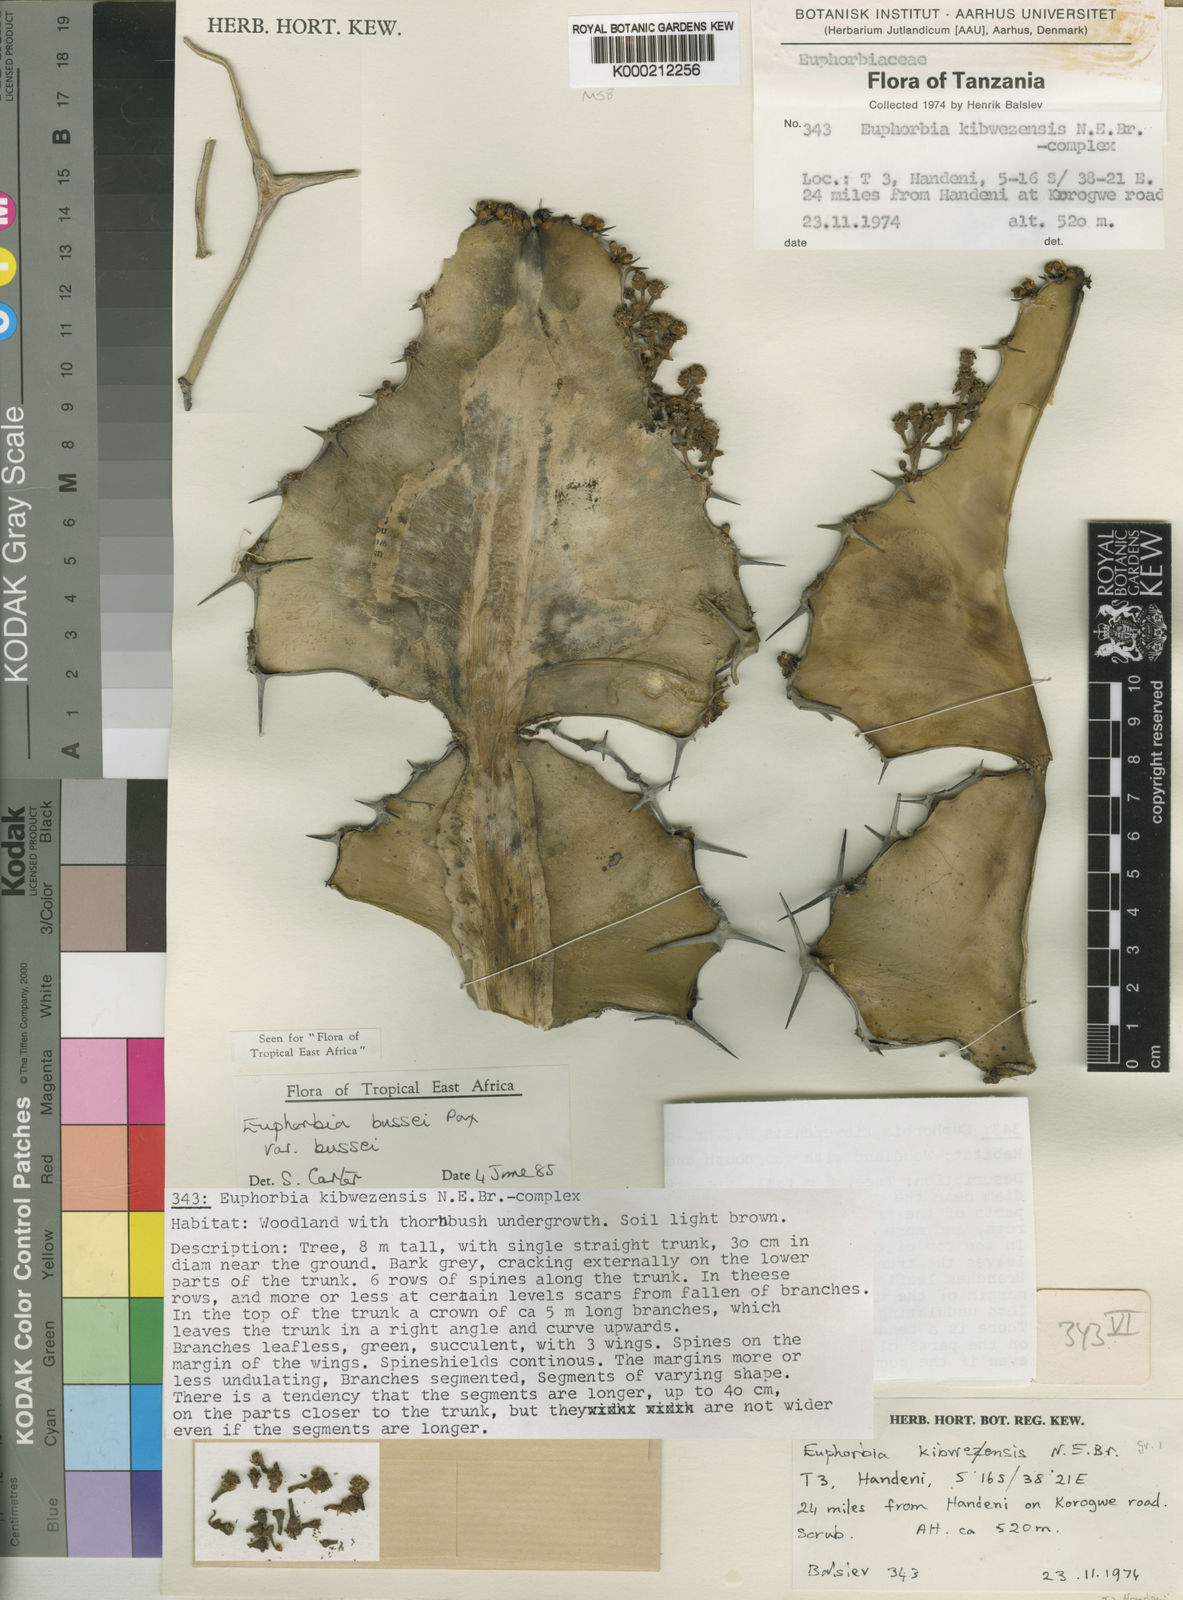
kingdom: Plantae
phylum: Tracheophyta
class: Magnoliopsida
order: Malpighiales
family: Euphorbiaceae
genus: Euphorbia
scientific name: Euphorbia bussei
